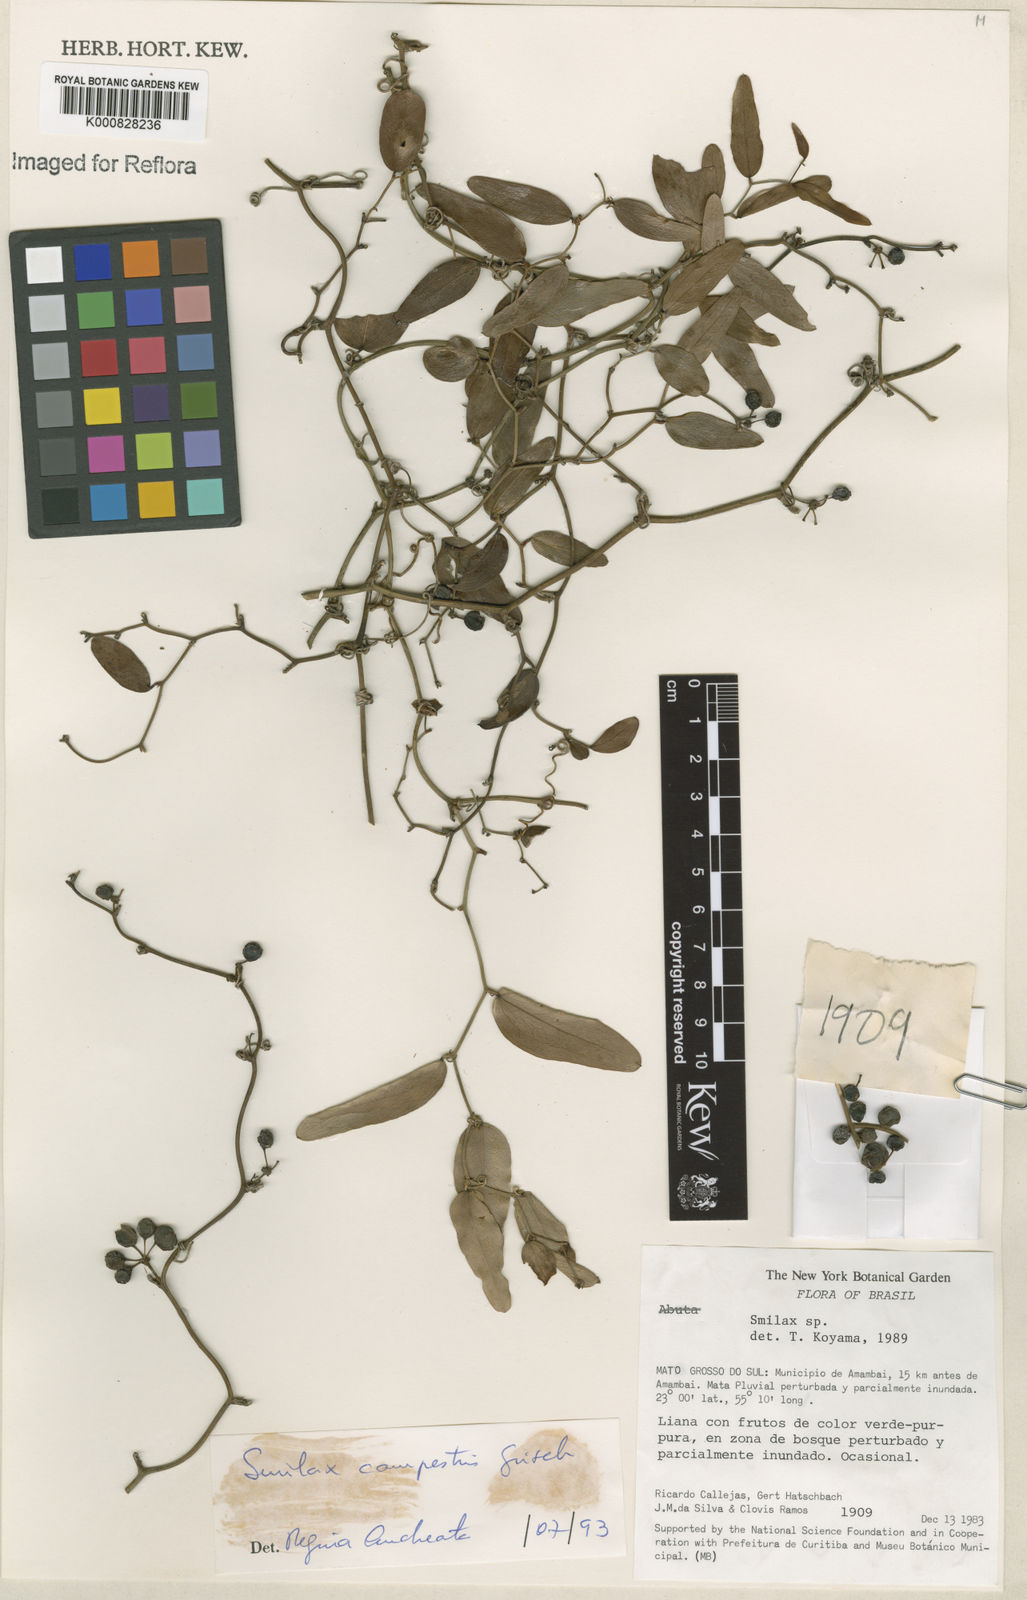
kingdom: Plantae
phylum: Tracheophyta
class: Liliopsida
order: Liliales
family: Smilacaceae
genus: Smilax
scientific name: Smilax campestris
